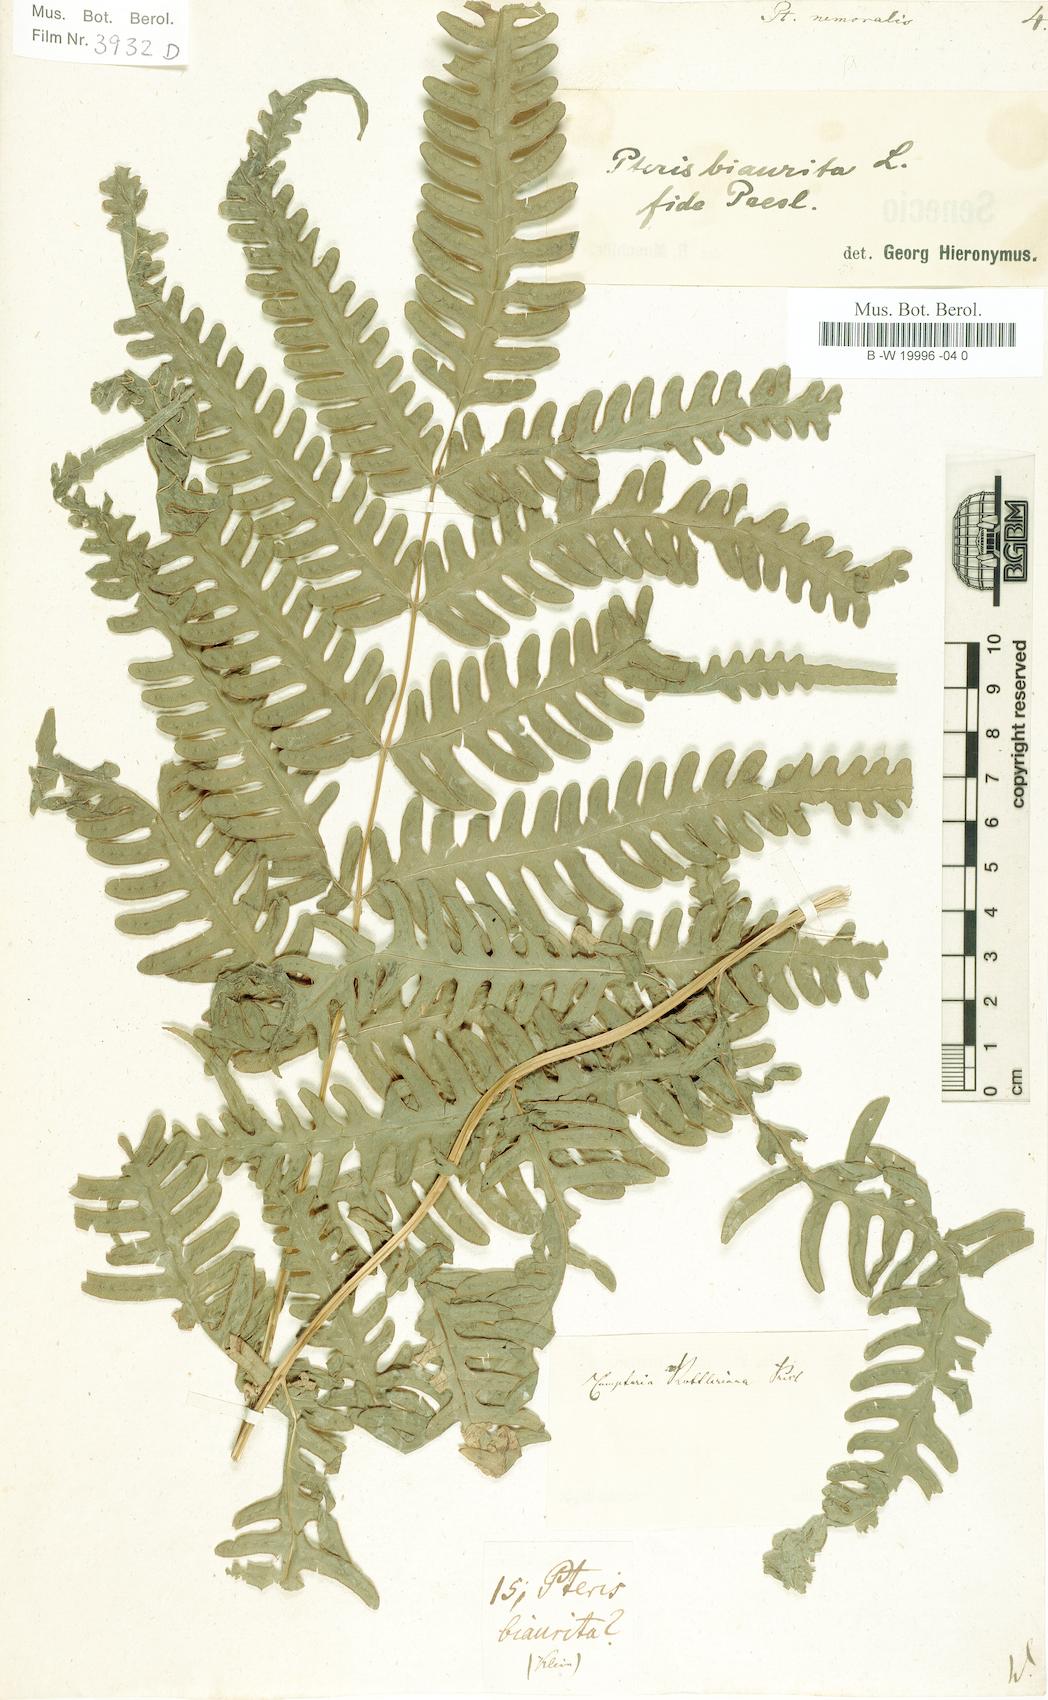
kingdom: Plantae
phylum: Tracheophyta
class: Polypodiopsida
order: Polypodiales
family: Pteridaceae
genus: Pteris
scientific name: Pteris linearis
